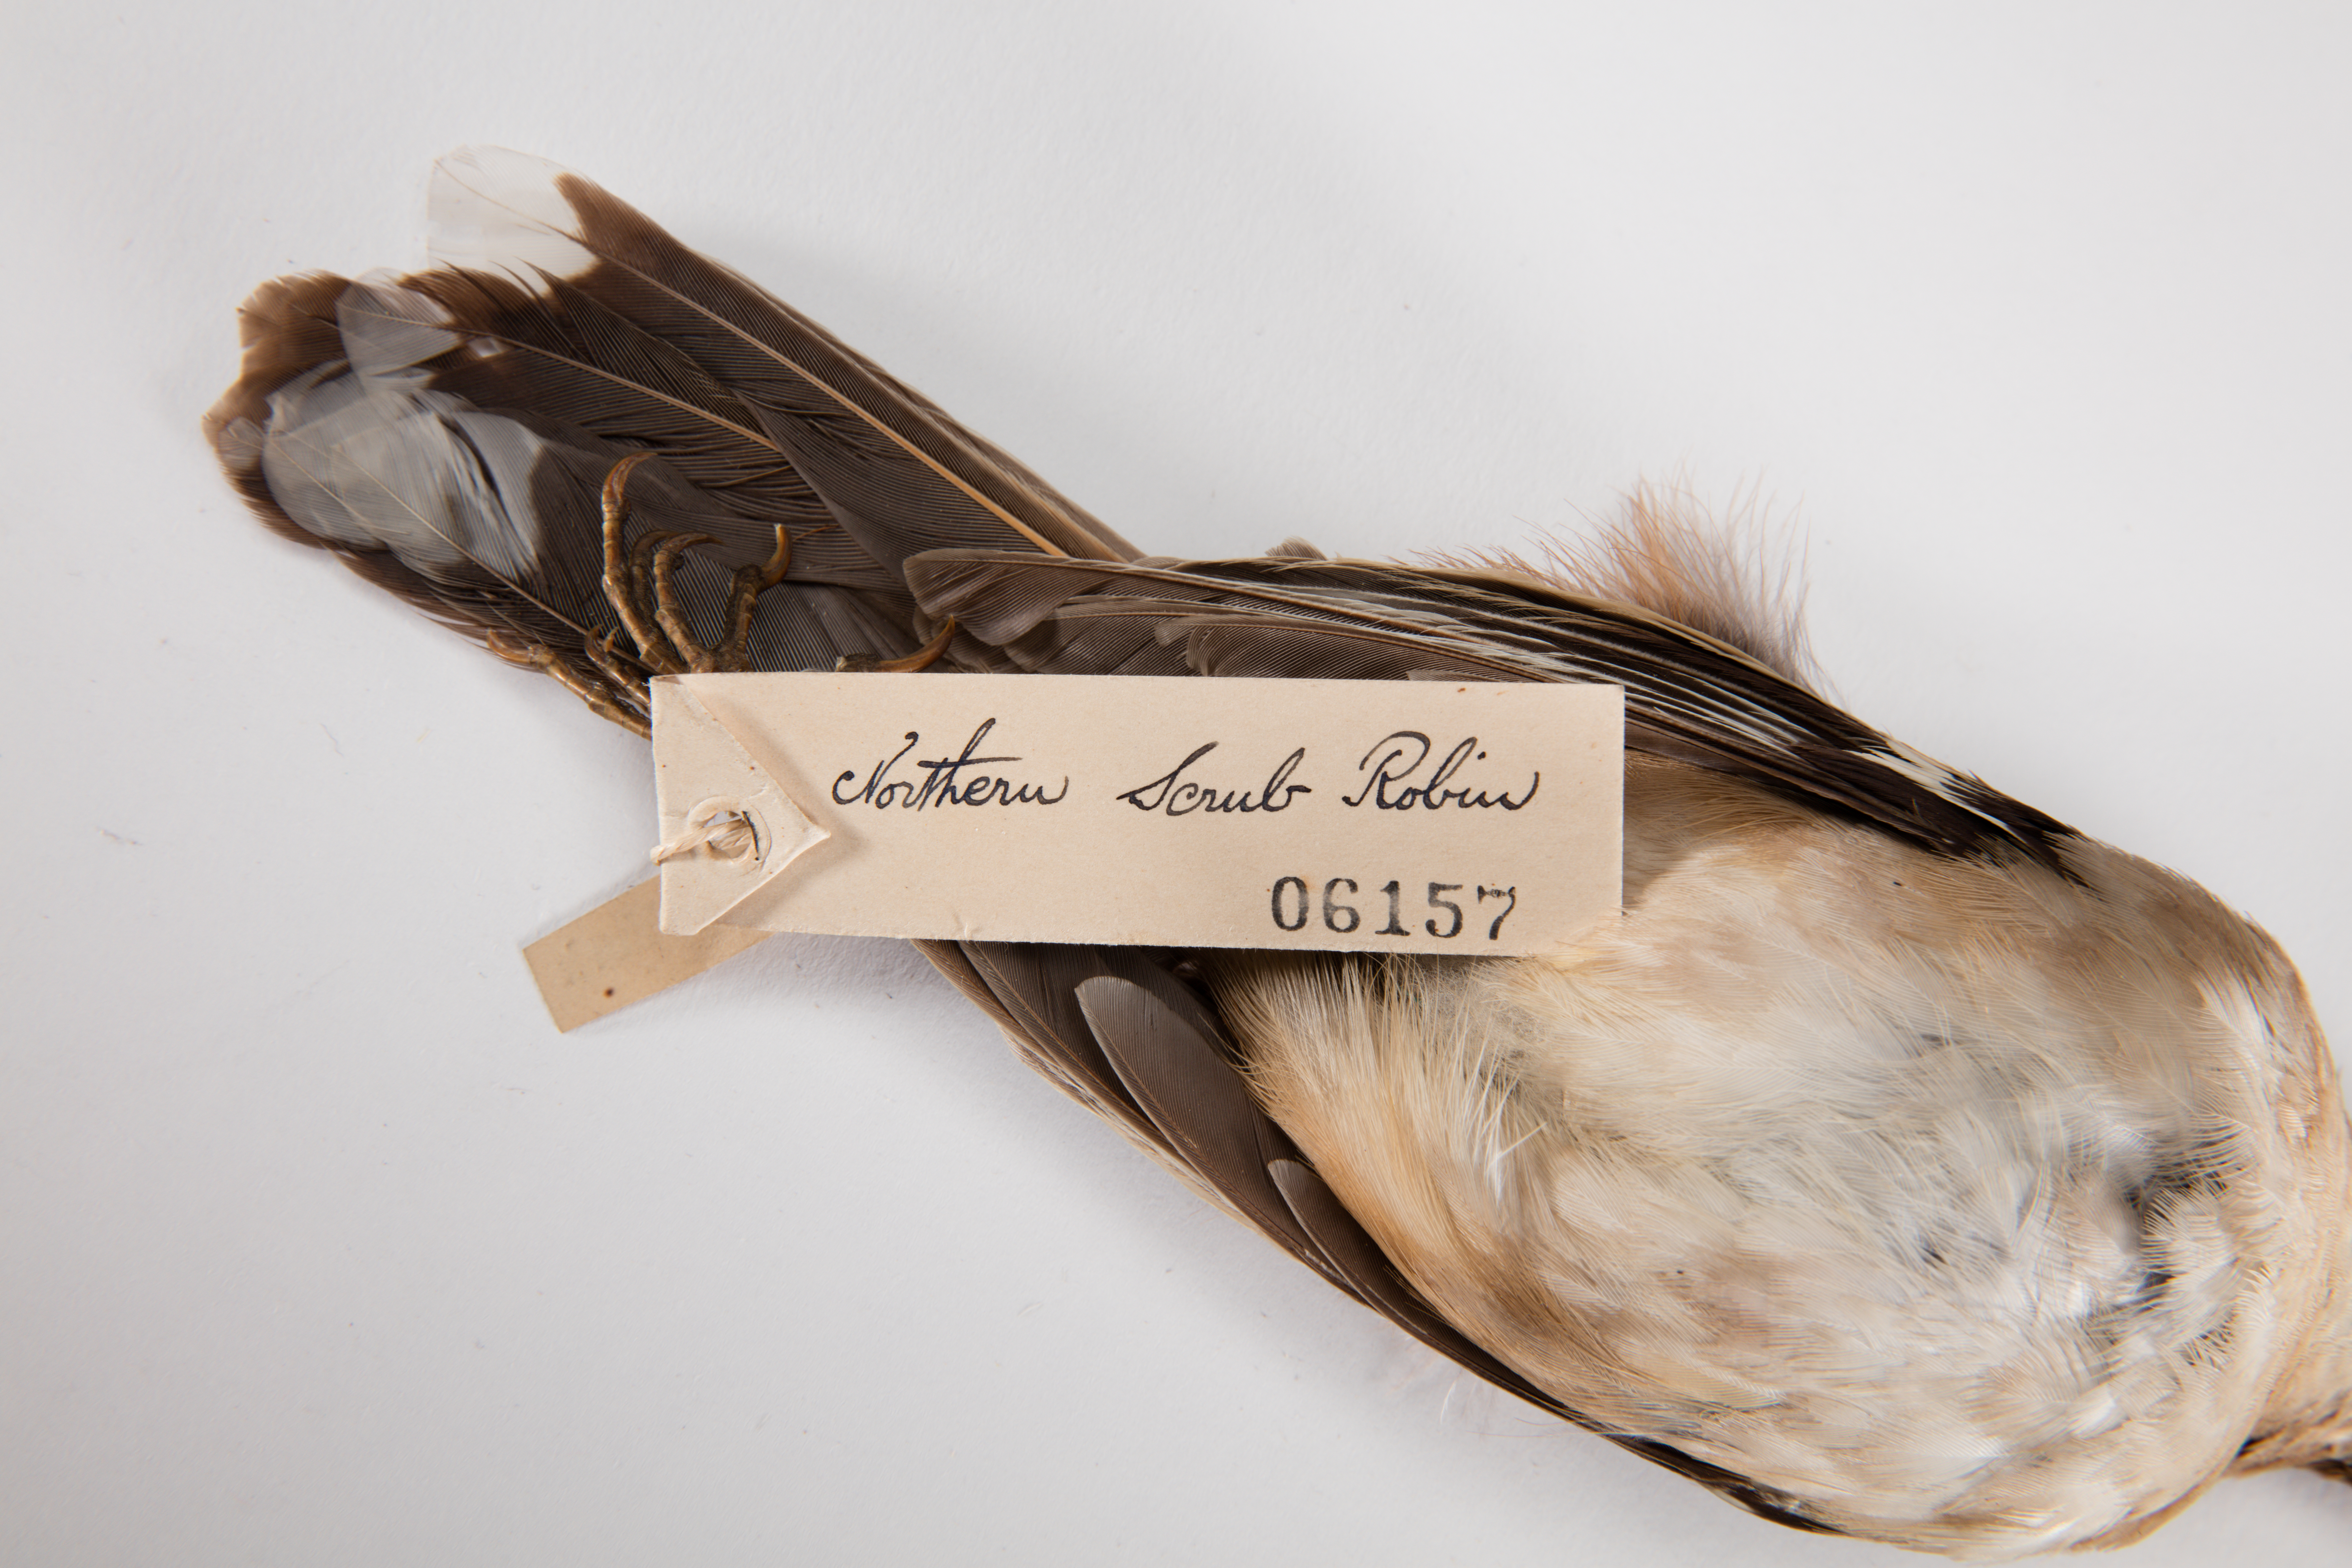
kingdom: Animalia
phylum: Chordata
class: Aves
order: Passeriformes
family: Petroicidae
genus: Drymodes
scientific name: Drymodes superciliaris
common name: Northern scrub robin
